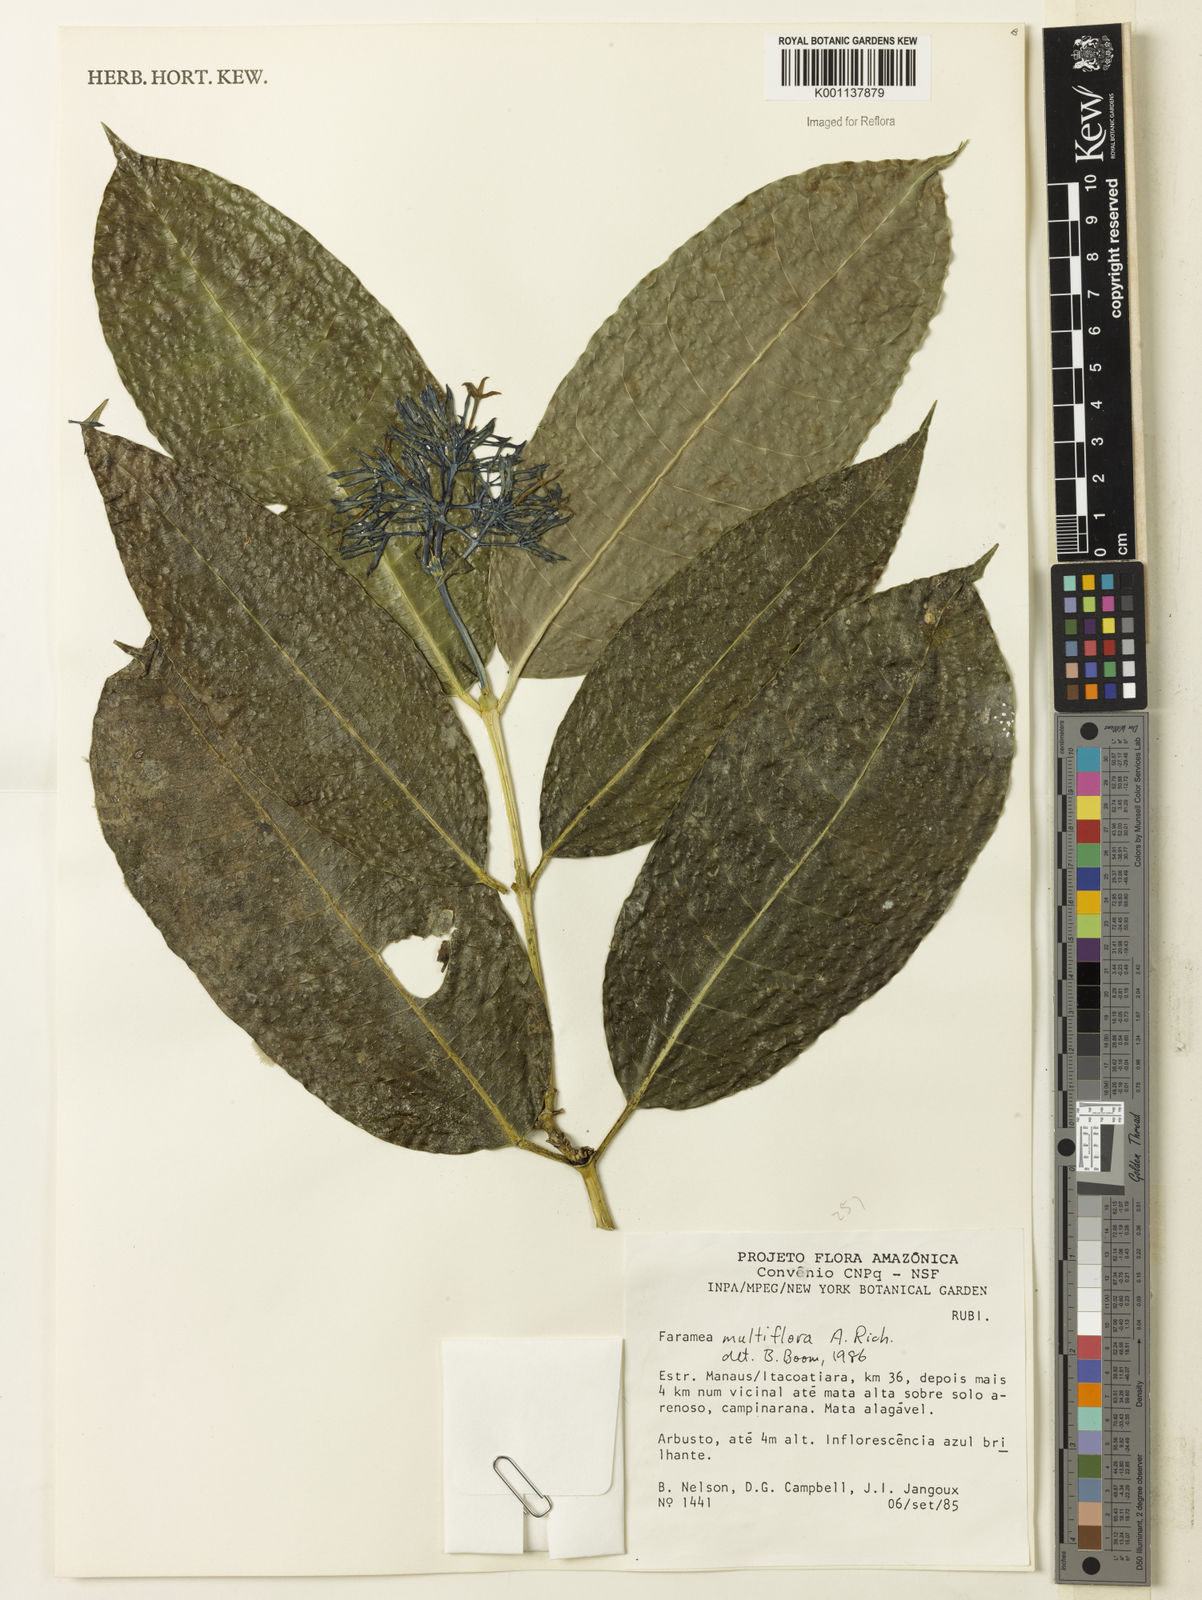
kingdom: Plantae
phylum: Tracheophyta
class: Magnoliopsida
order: Gentianales
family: Rubiaceae
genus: Faramea
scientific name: Faramea multiflora
